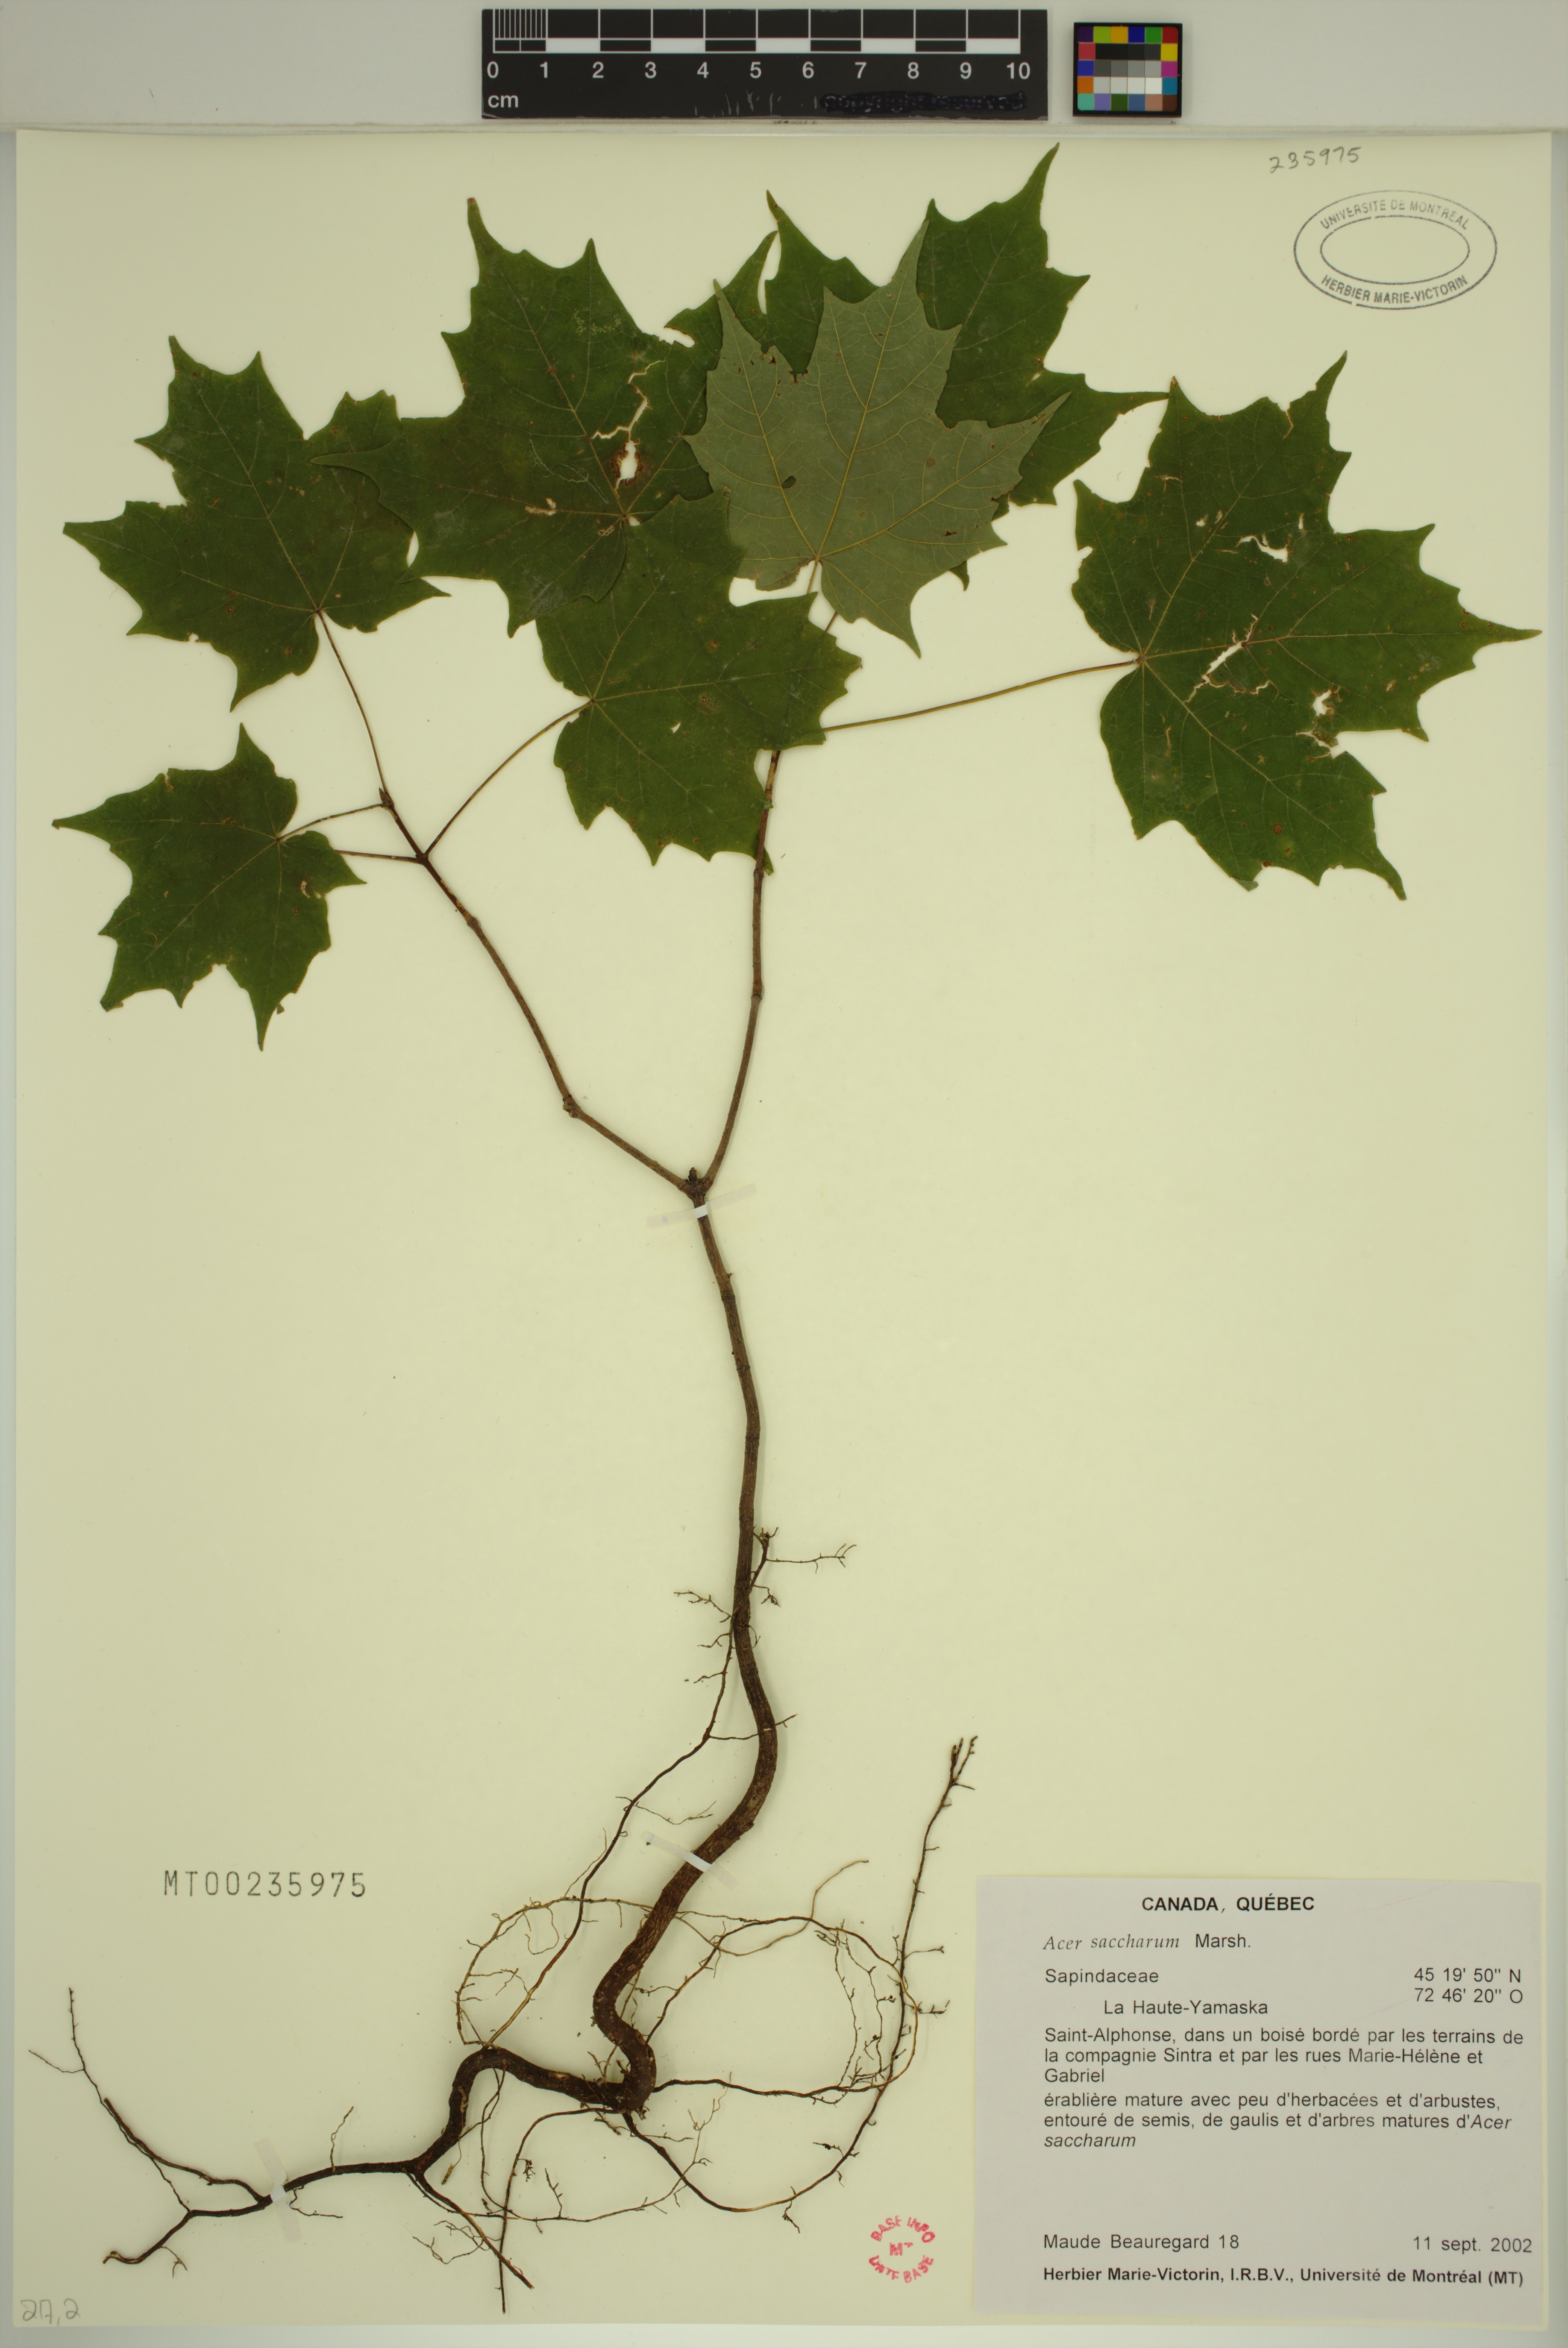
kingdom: Plantae
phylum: Tracheophyta
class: Magnoliopsida
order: Sapindales
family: Sapindaceae
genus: Acer
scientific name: Acer saccharum
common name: Sugar maple
